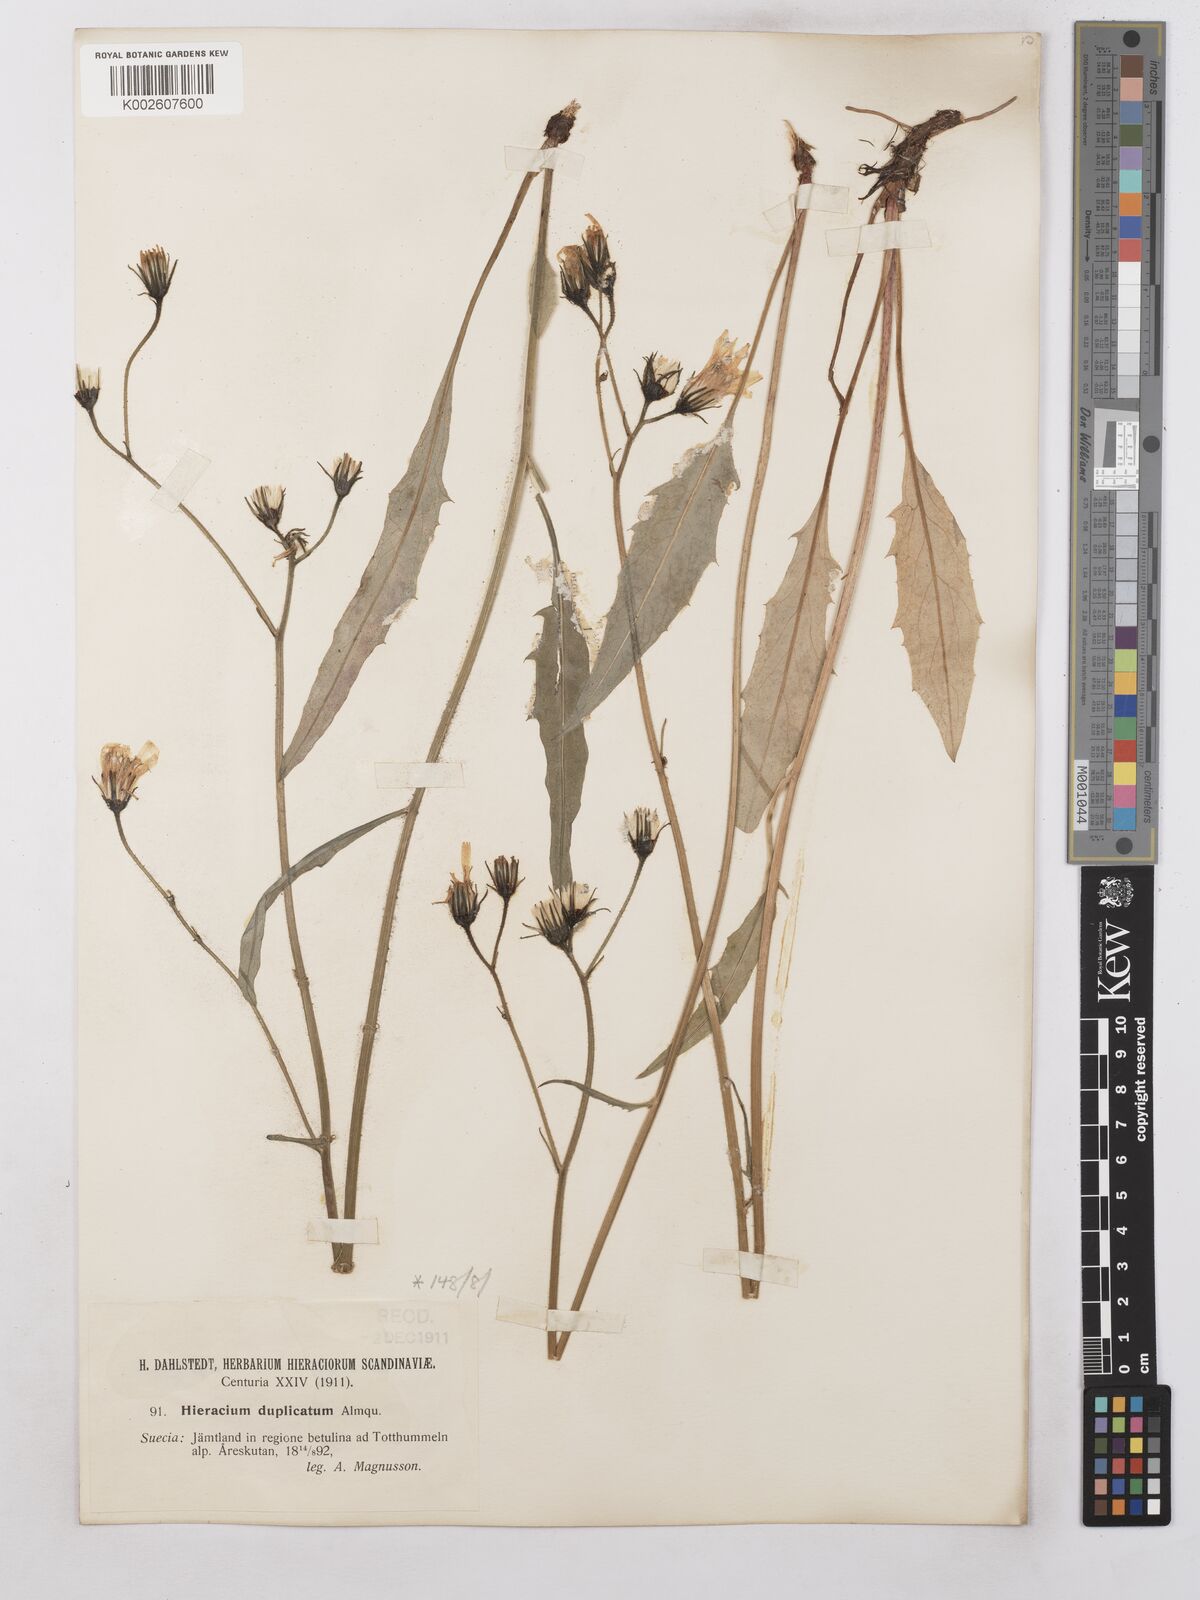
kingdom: Plantae
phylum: Tracheophyta
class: Magnoliopsida
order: Asterales
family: Asteraceae
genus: Hieracium
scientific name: Hieracium subramosum
